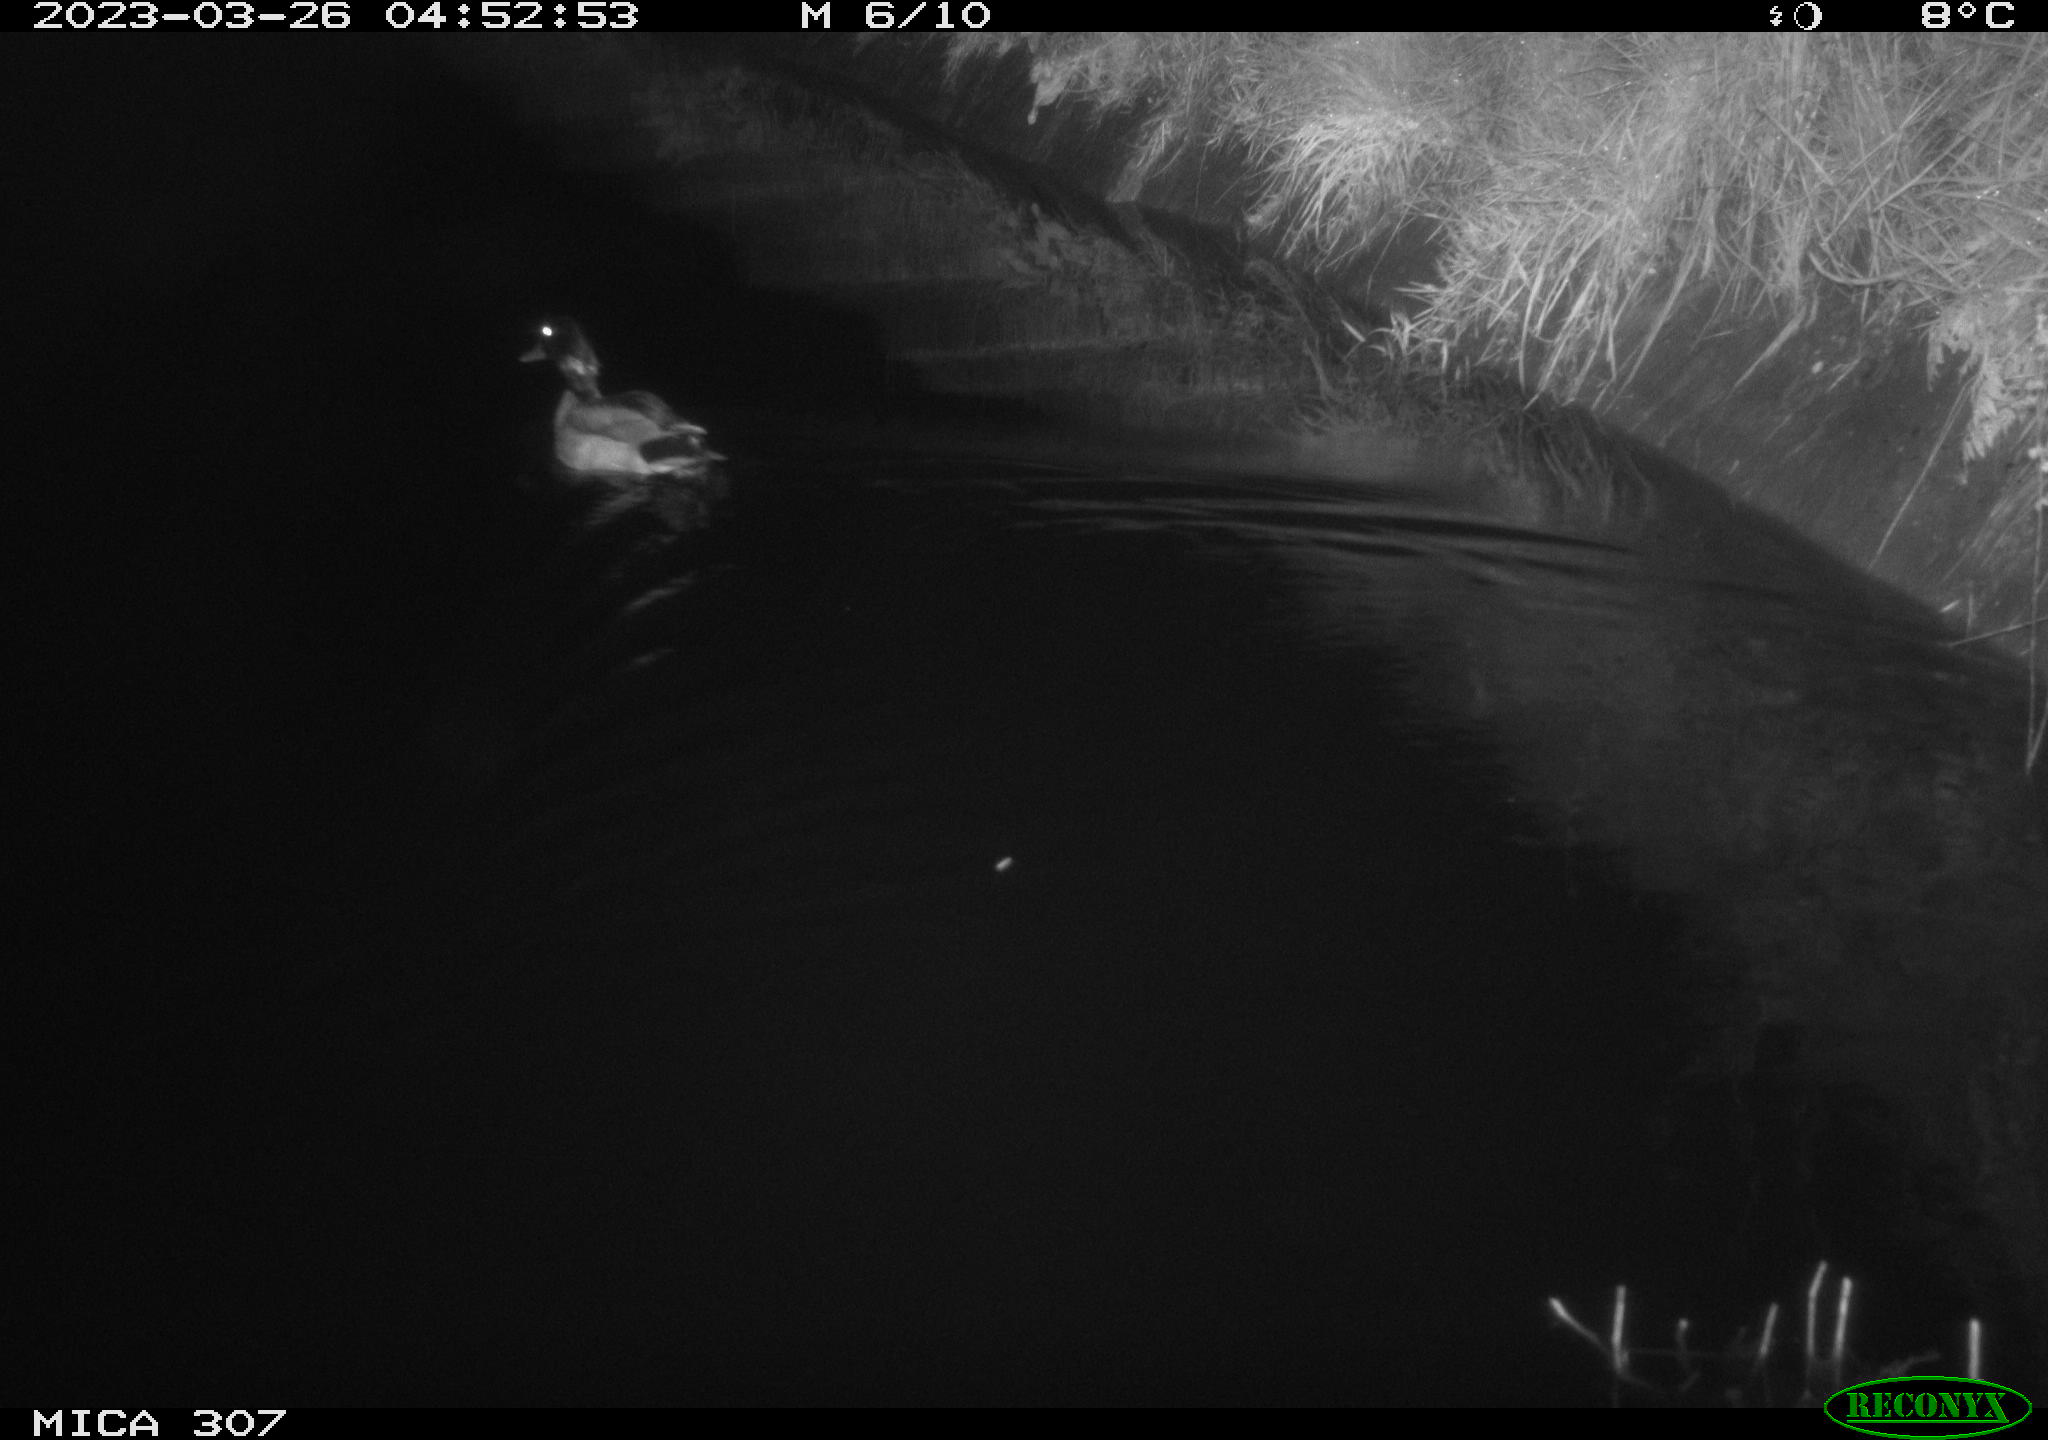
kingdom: Animalia
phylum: Chordata
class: Aves
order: Anseriformes
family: Anatidae
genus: Anas
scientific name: Anas
